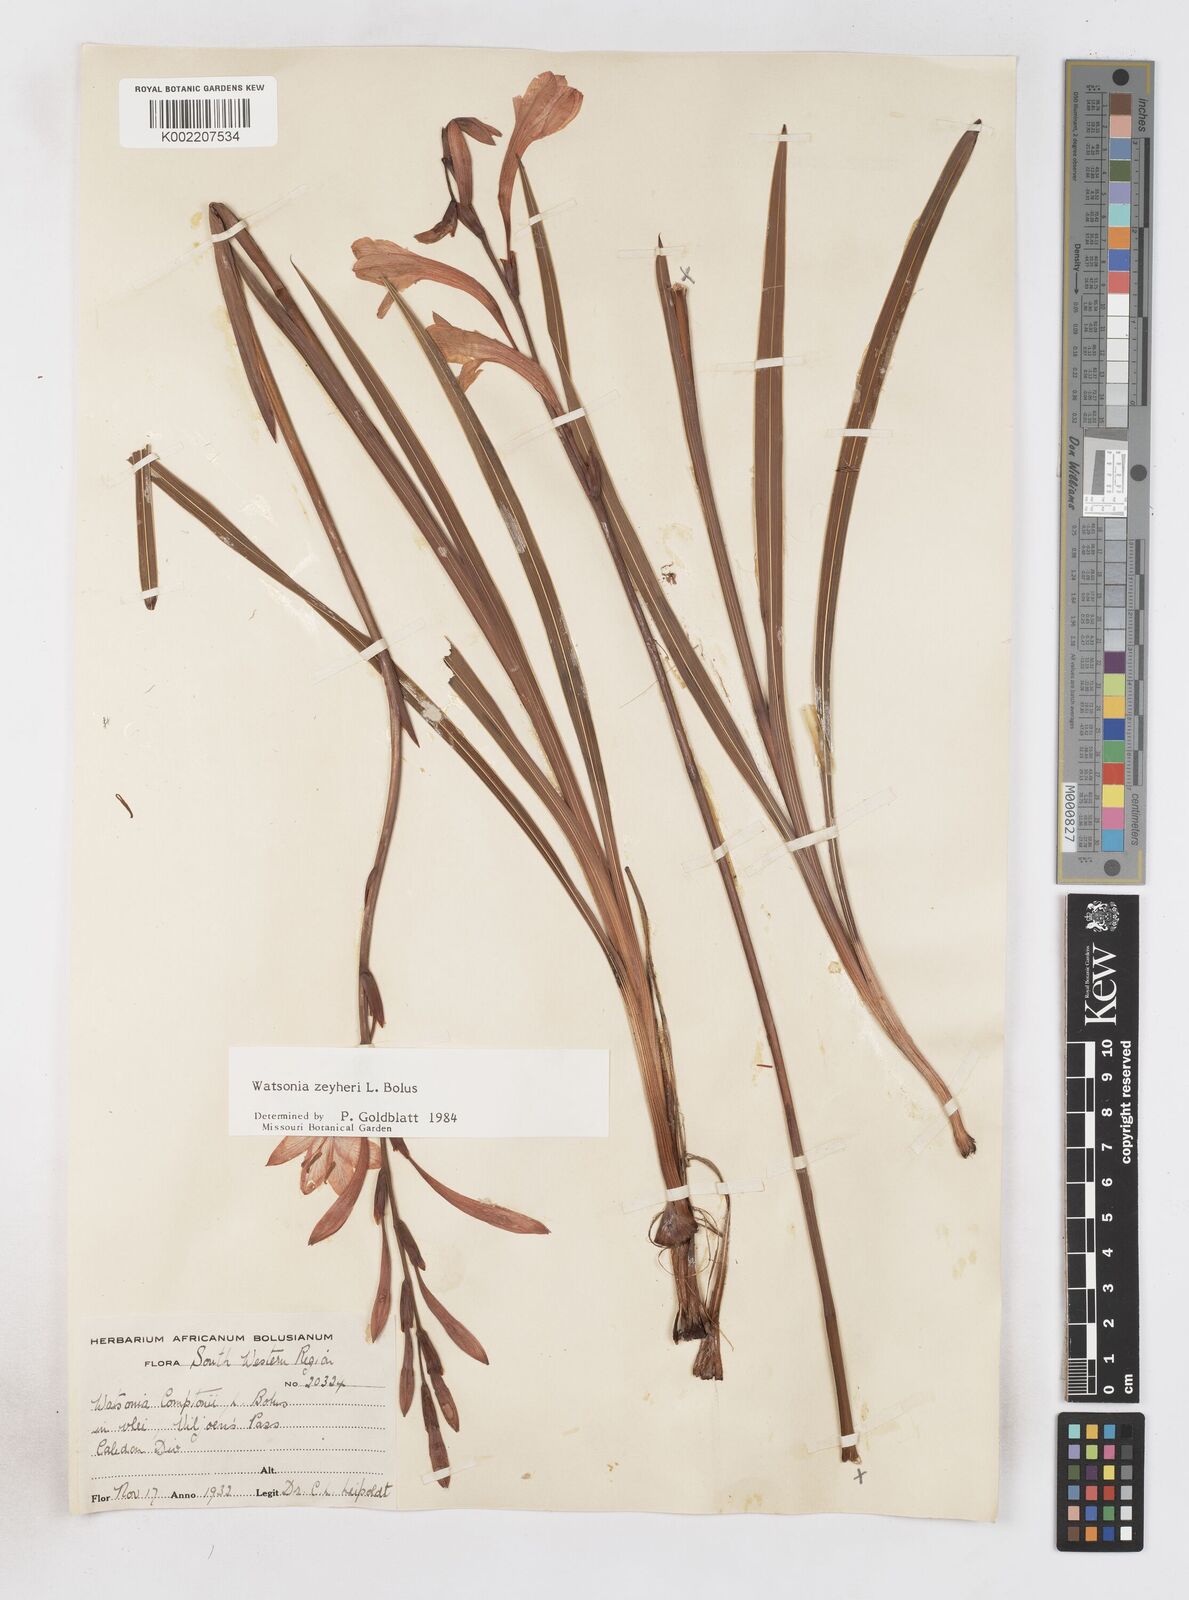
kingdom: Plantae
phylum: Tracheophyta
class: Liliopsida
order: Asparagales
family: Iridaceae
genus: Watsonia
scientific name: Watsonia zeyheri
